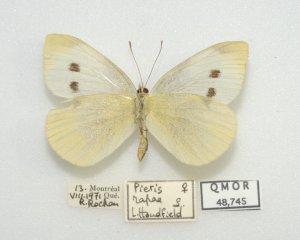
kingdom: Animalia
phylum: Arthropoda
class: Insecta
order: Lepidoptera
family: Pieridae
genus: Pieris
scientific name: Pieris rapae
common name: Cabbage White
